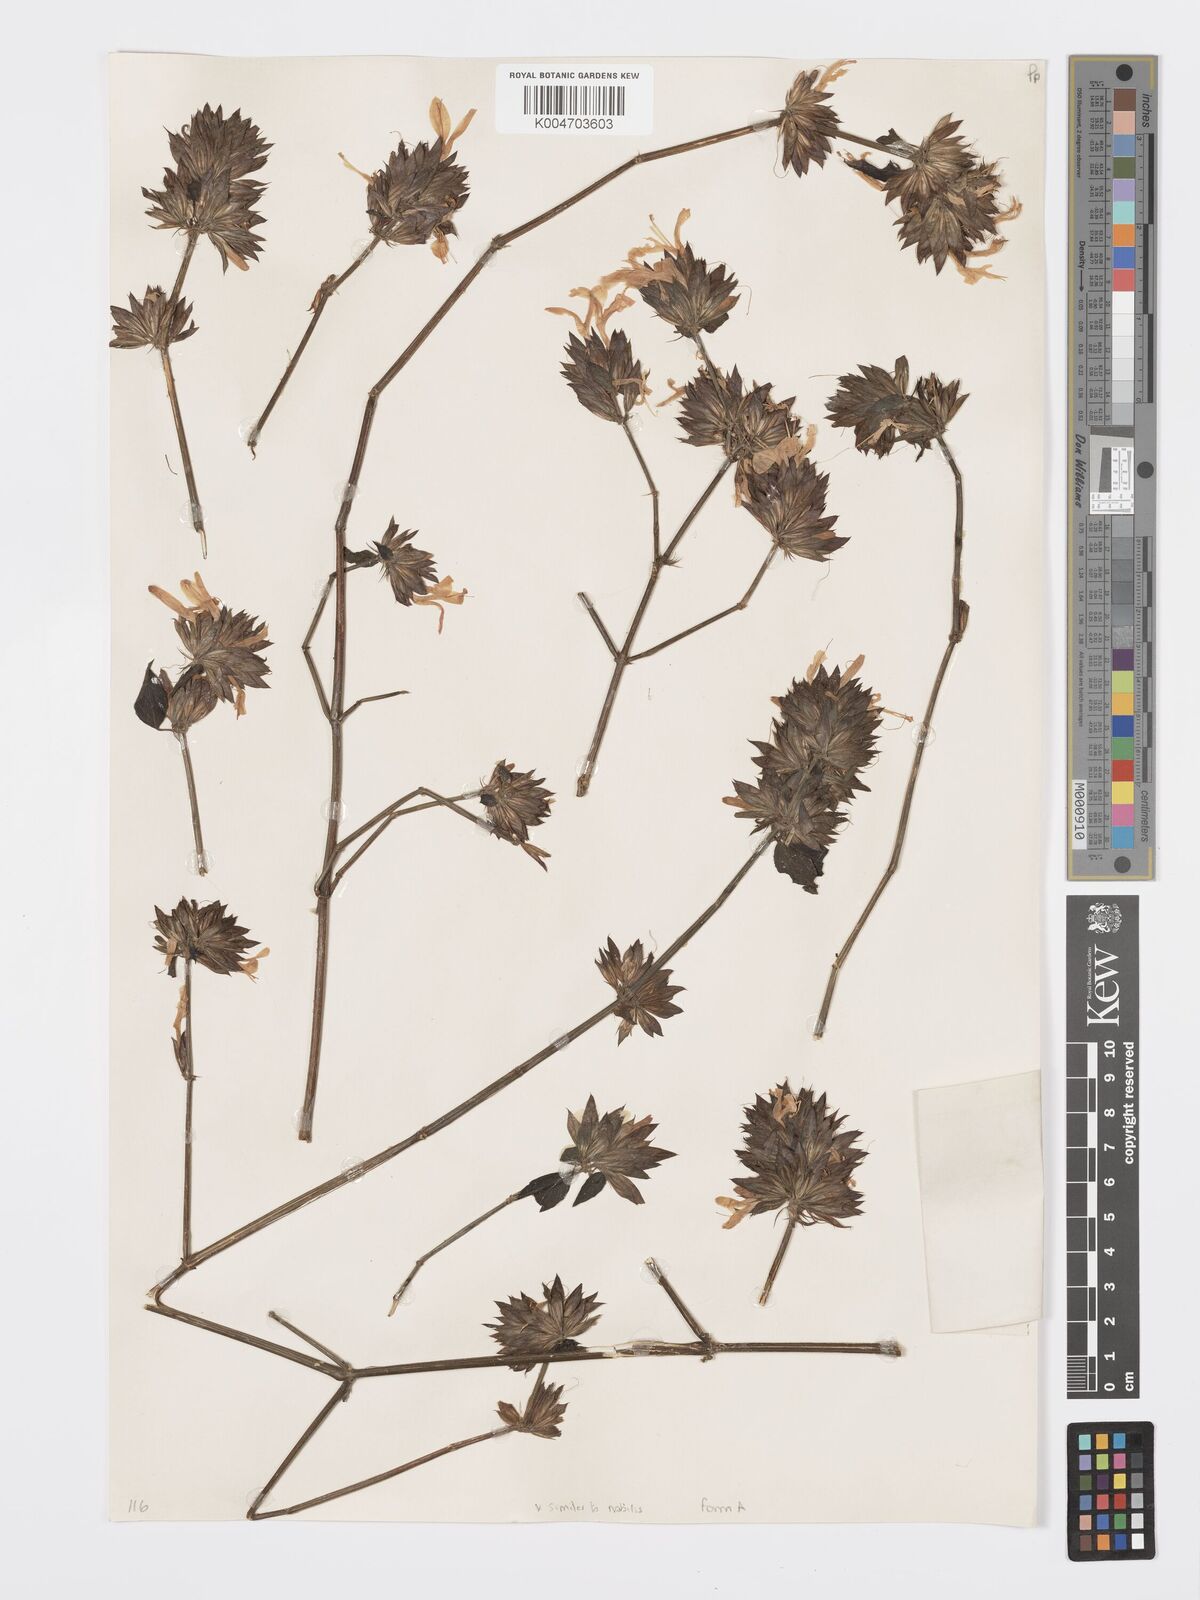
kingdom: Plantae
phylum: Tracheophyta
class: Magnoliopsida
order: Lamiales
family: Acanthaceae
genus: Dicliptera
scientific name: Dicliptera clinopodia
